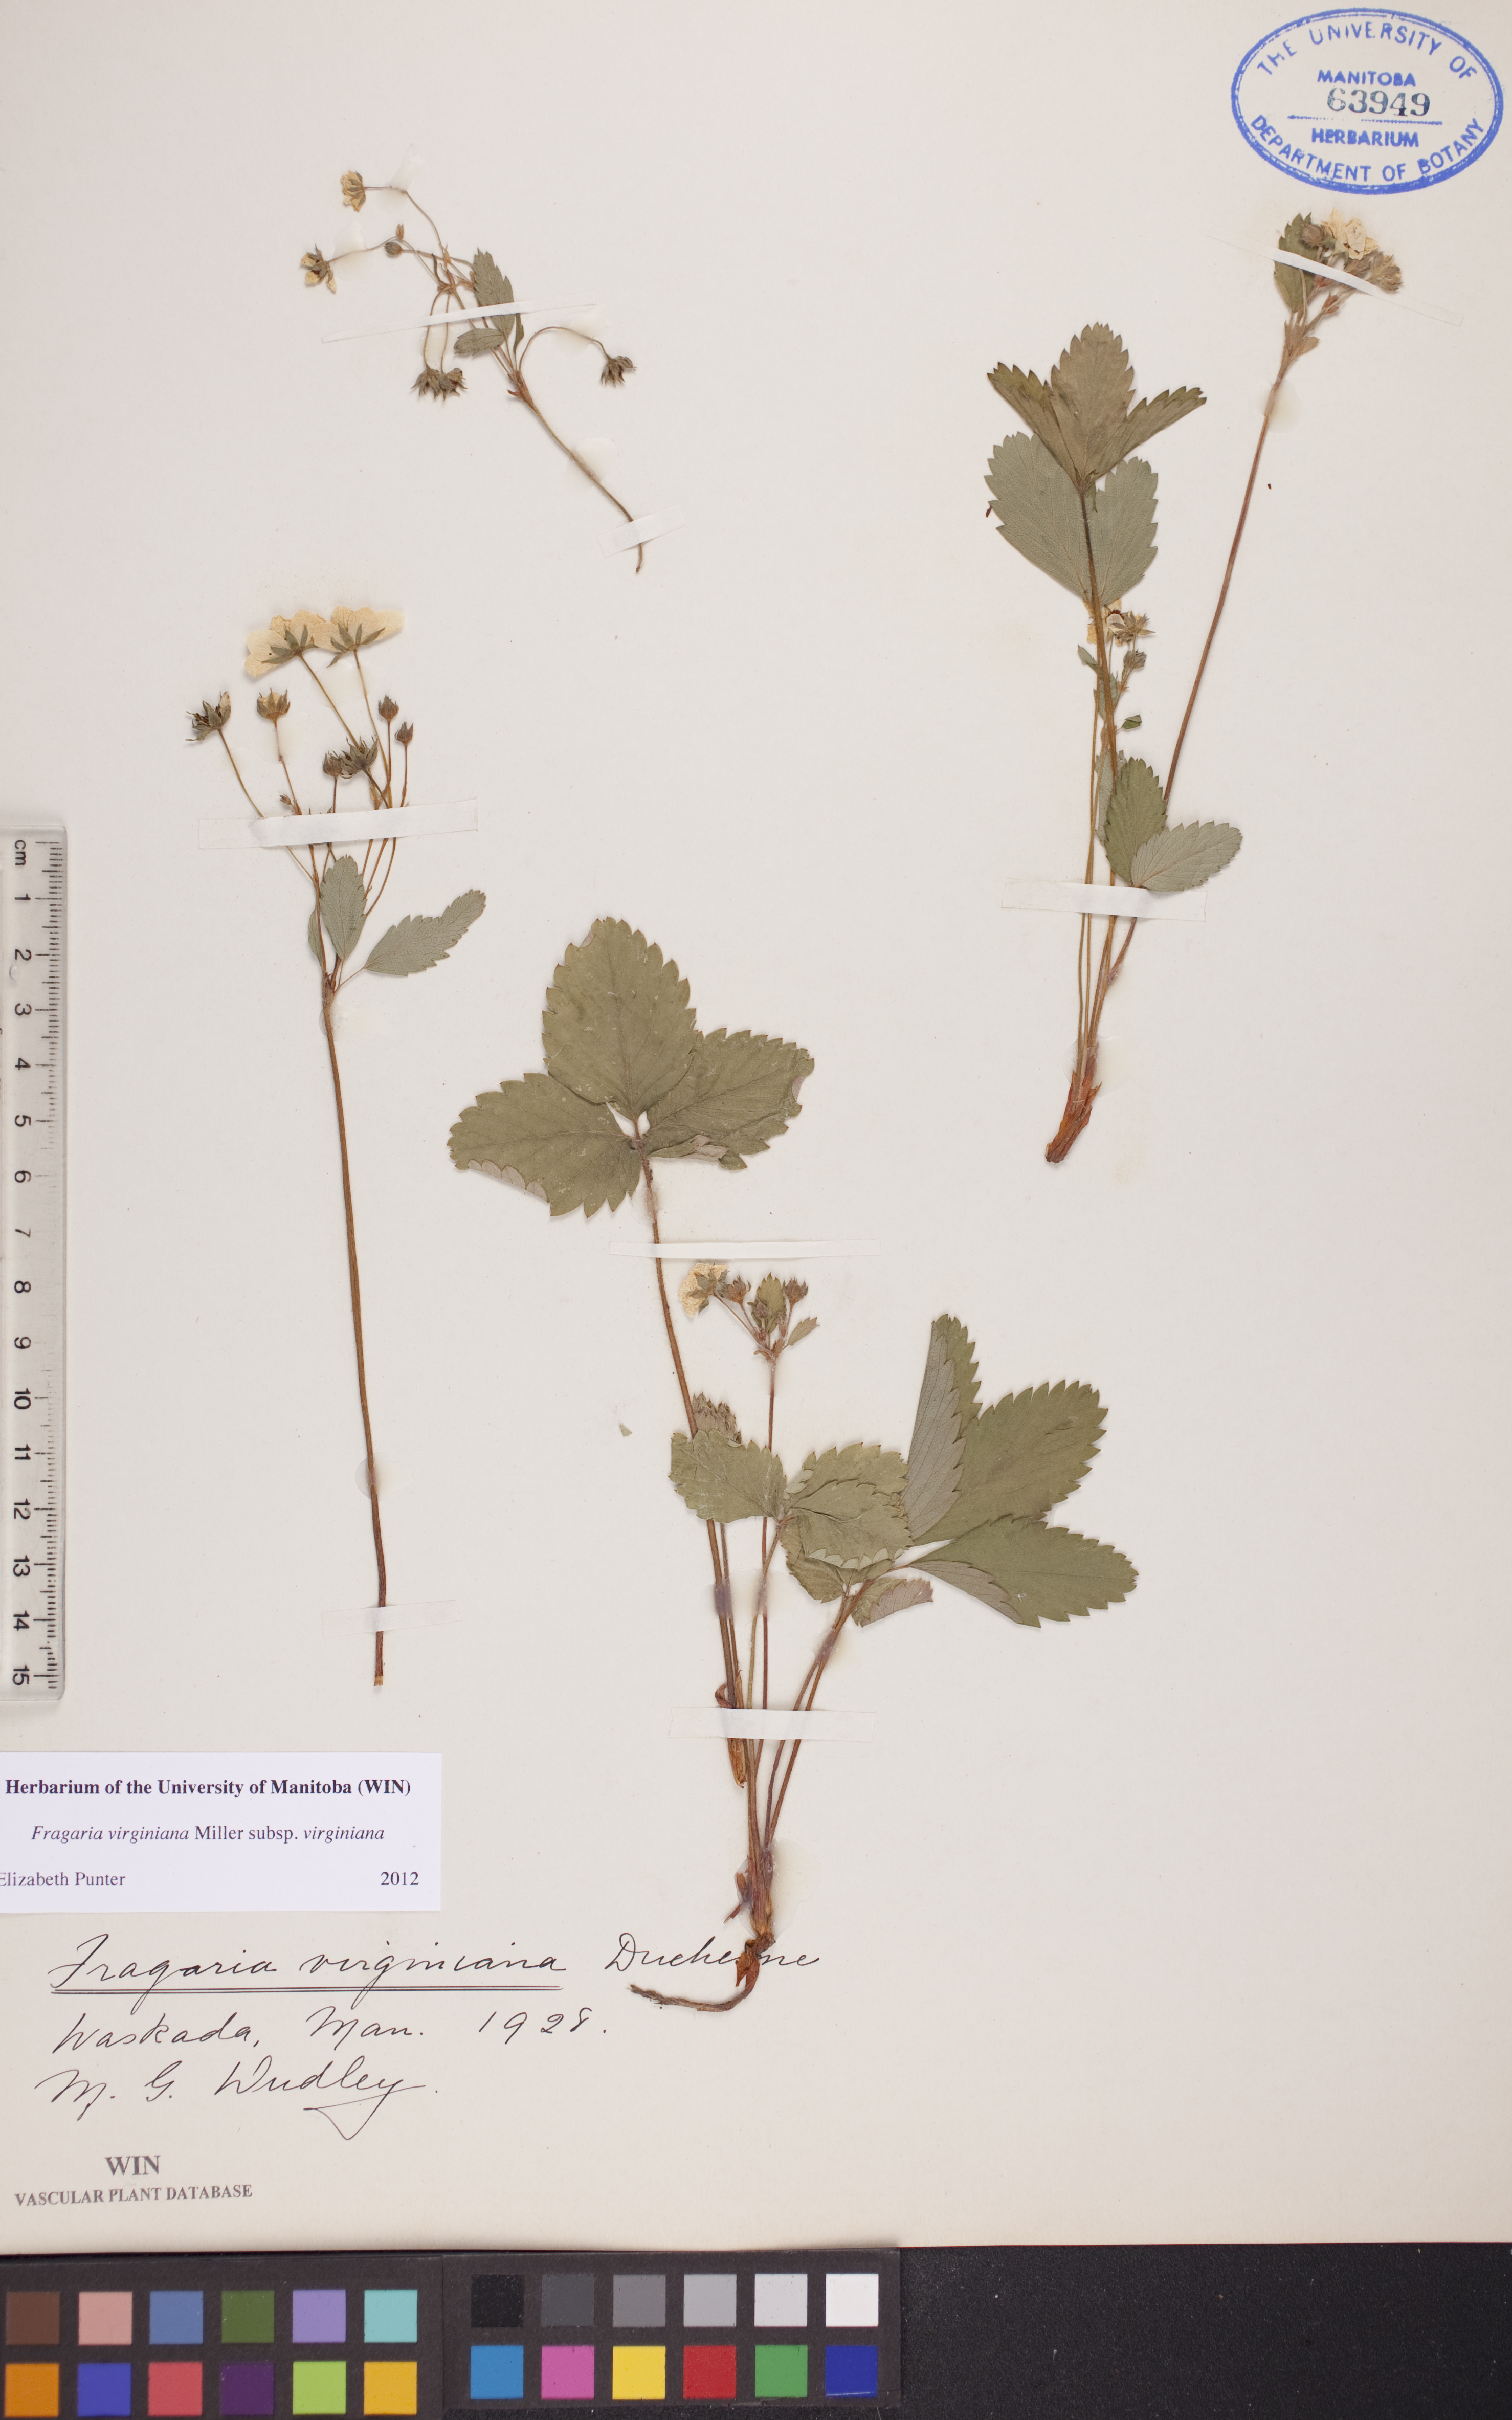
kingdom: Plantae
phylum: Tracheophyta
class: Magnoliopsida
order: Rosales
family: Rosaceae
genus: Fragaria
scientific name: Fragaria virginiana
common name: Thickleaved wild strawberry
